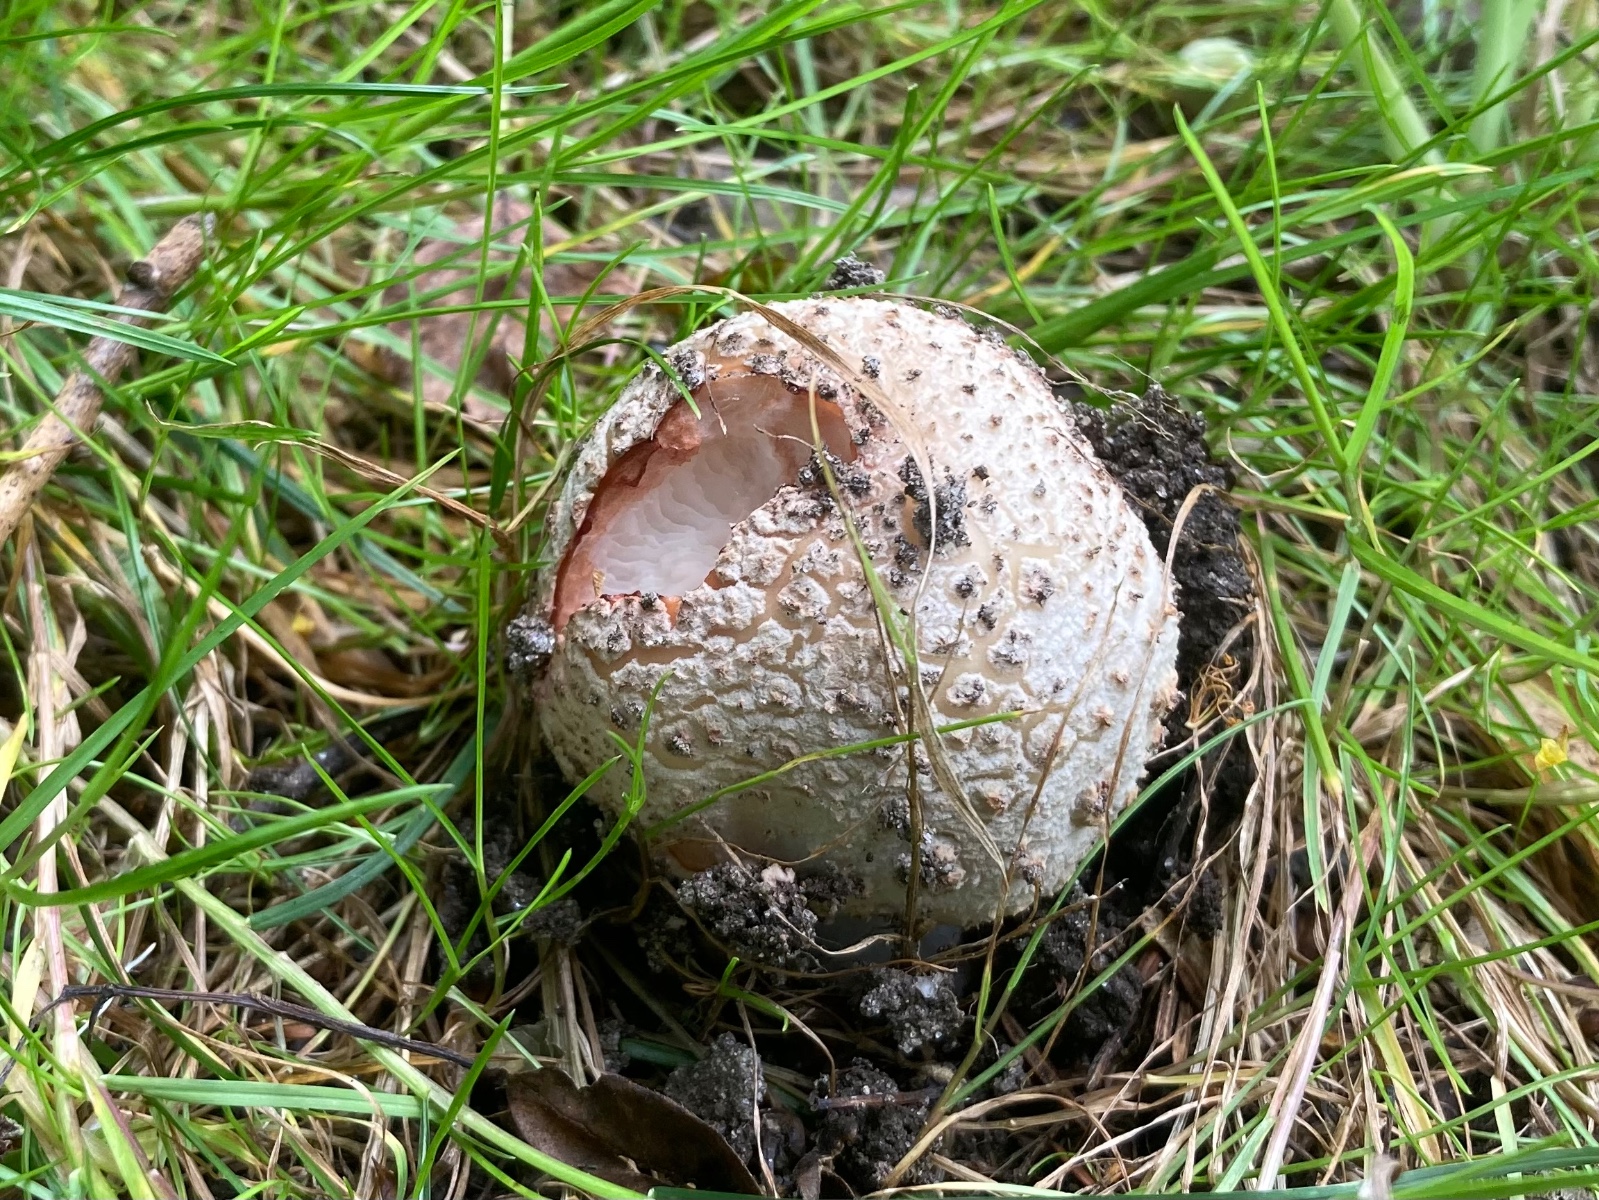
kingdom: Fungi
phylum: Basidiomycota
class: Agaricomycetes
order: Agaricales
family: Amanitaceae
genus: Amanita
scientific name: Amanita rubescens
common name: rødmende fluesvamp
